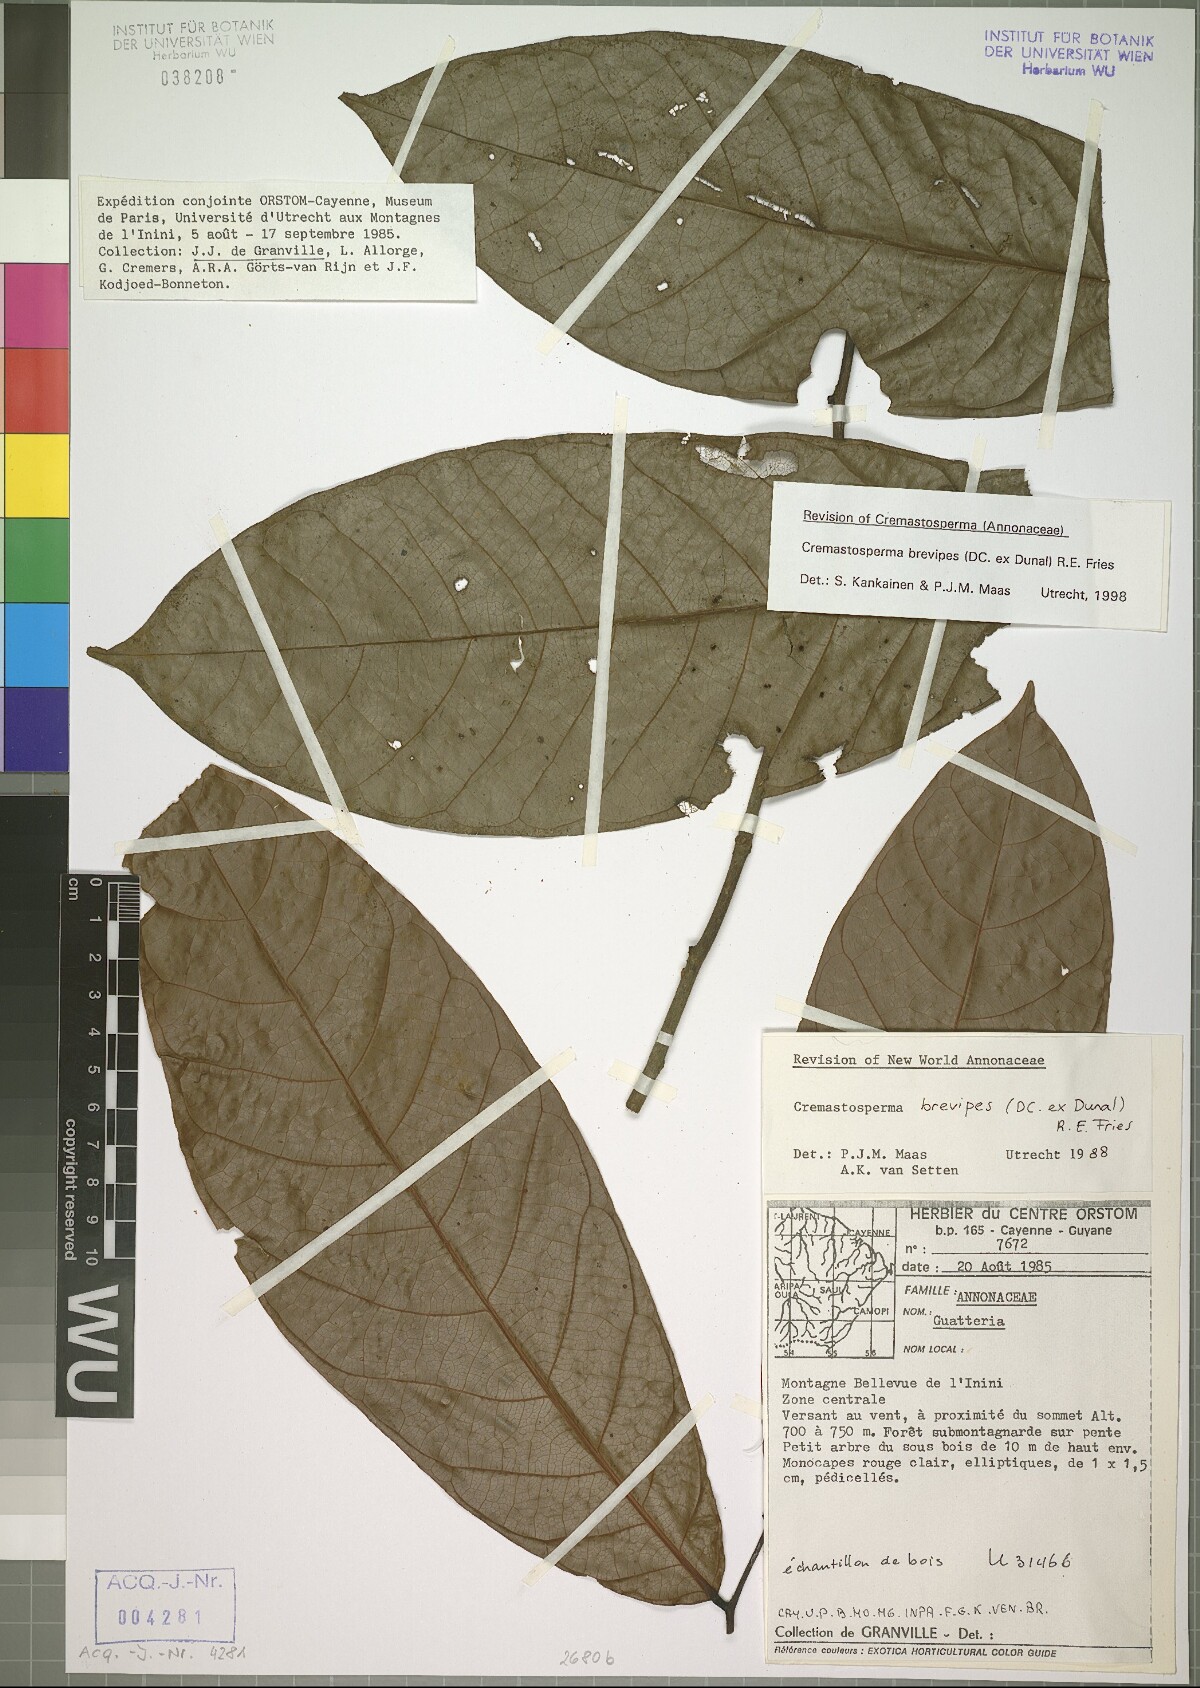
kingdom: Plantae
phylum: Tracheophyta
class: Magnoliopsida
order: Magnoliales
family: Annonaceae
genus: Cremastosperma
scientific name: Cremastosperma brevipes
